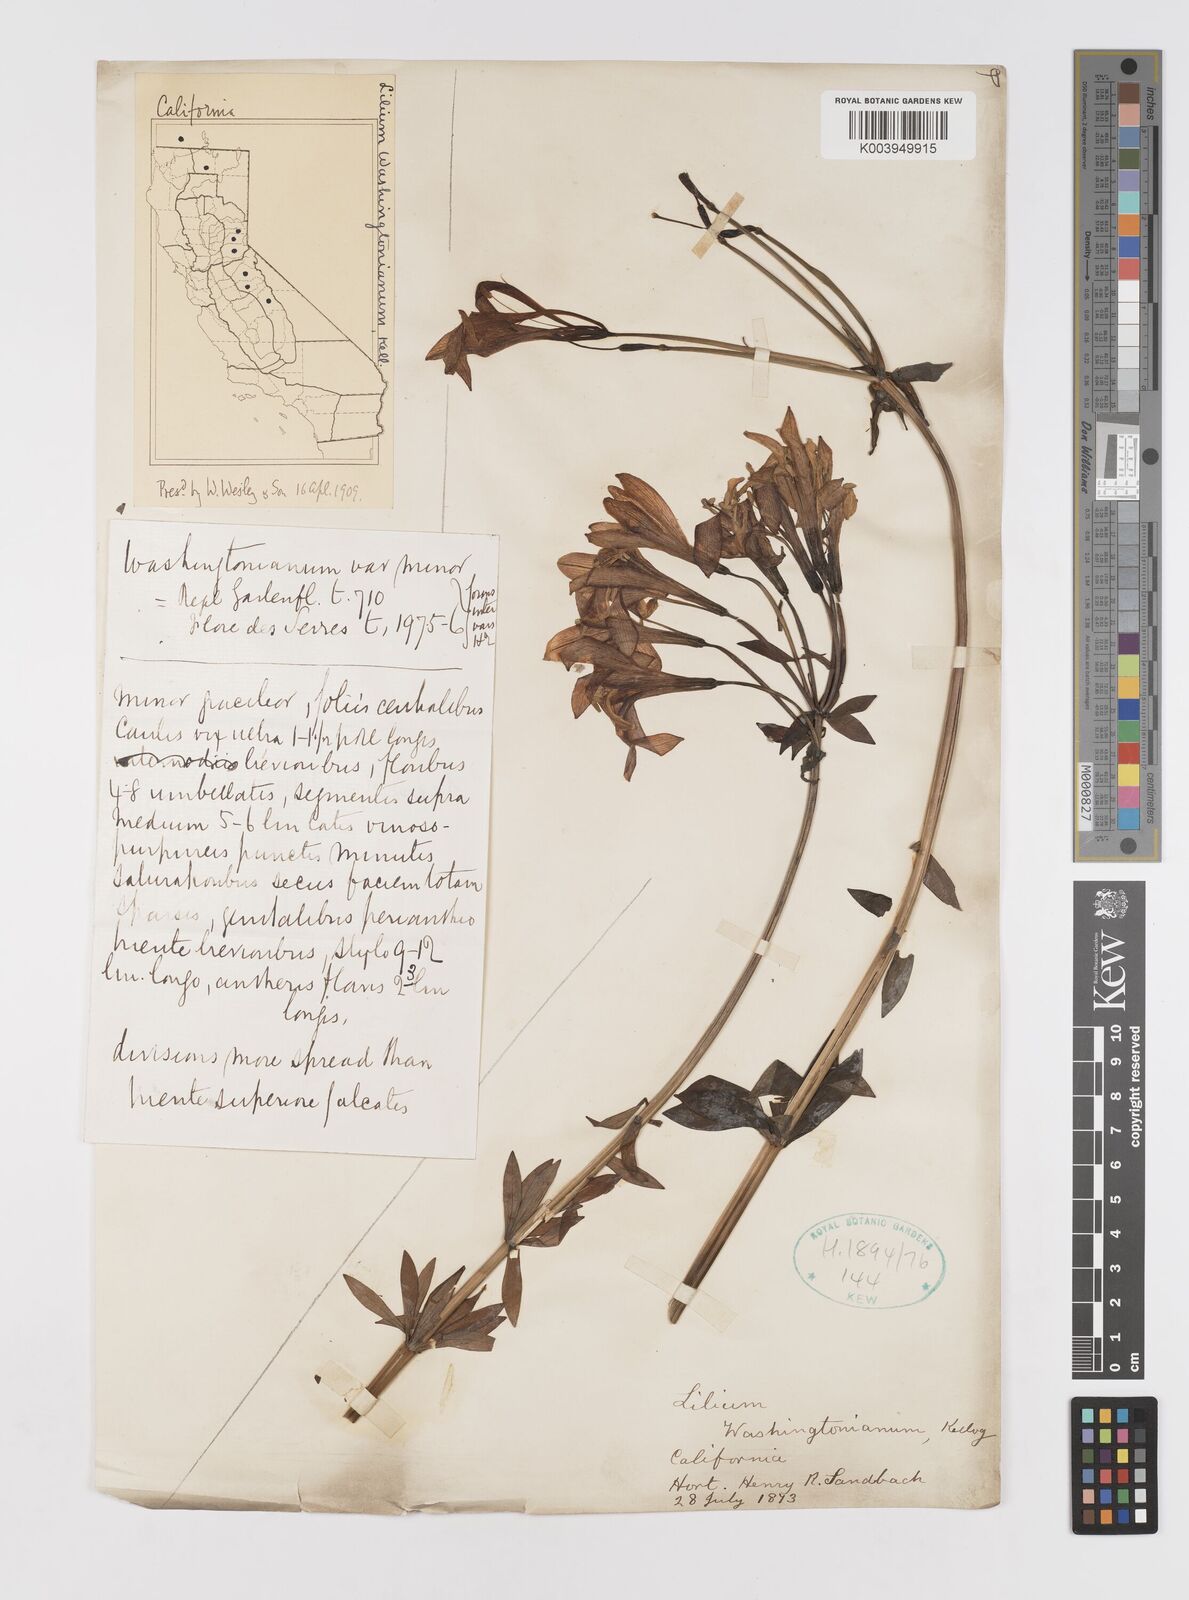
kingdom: Plantae
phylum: Tracheophyta
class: Liliopsida
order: Liliales
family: Liliaceae
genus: Lilium
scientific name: Lilium washingtonianum
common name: Washington lily
